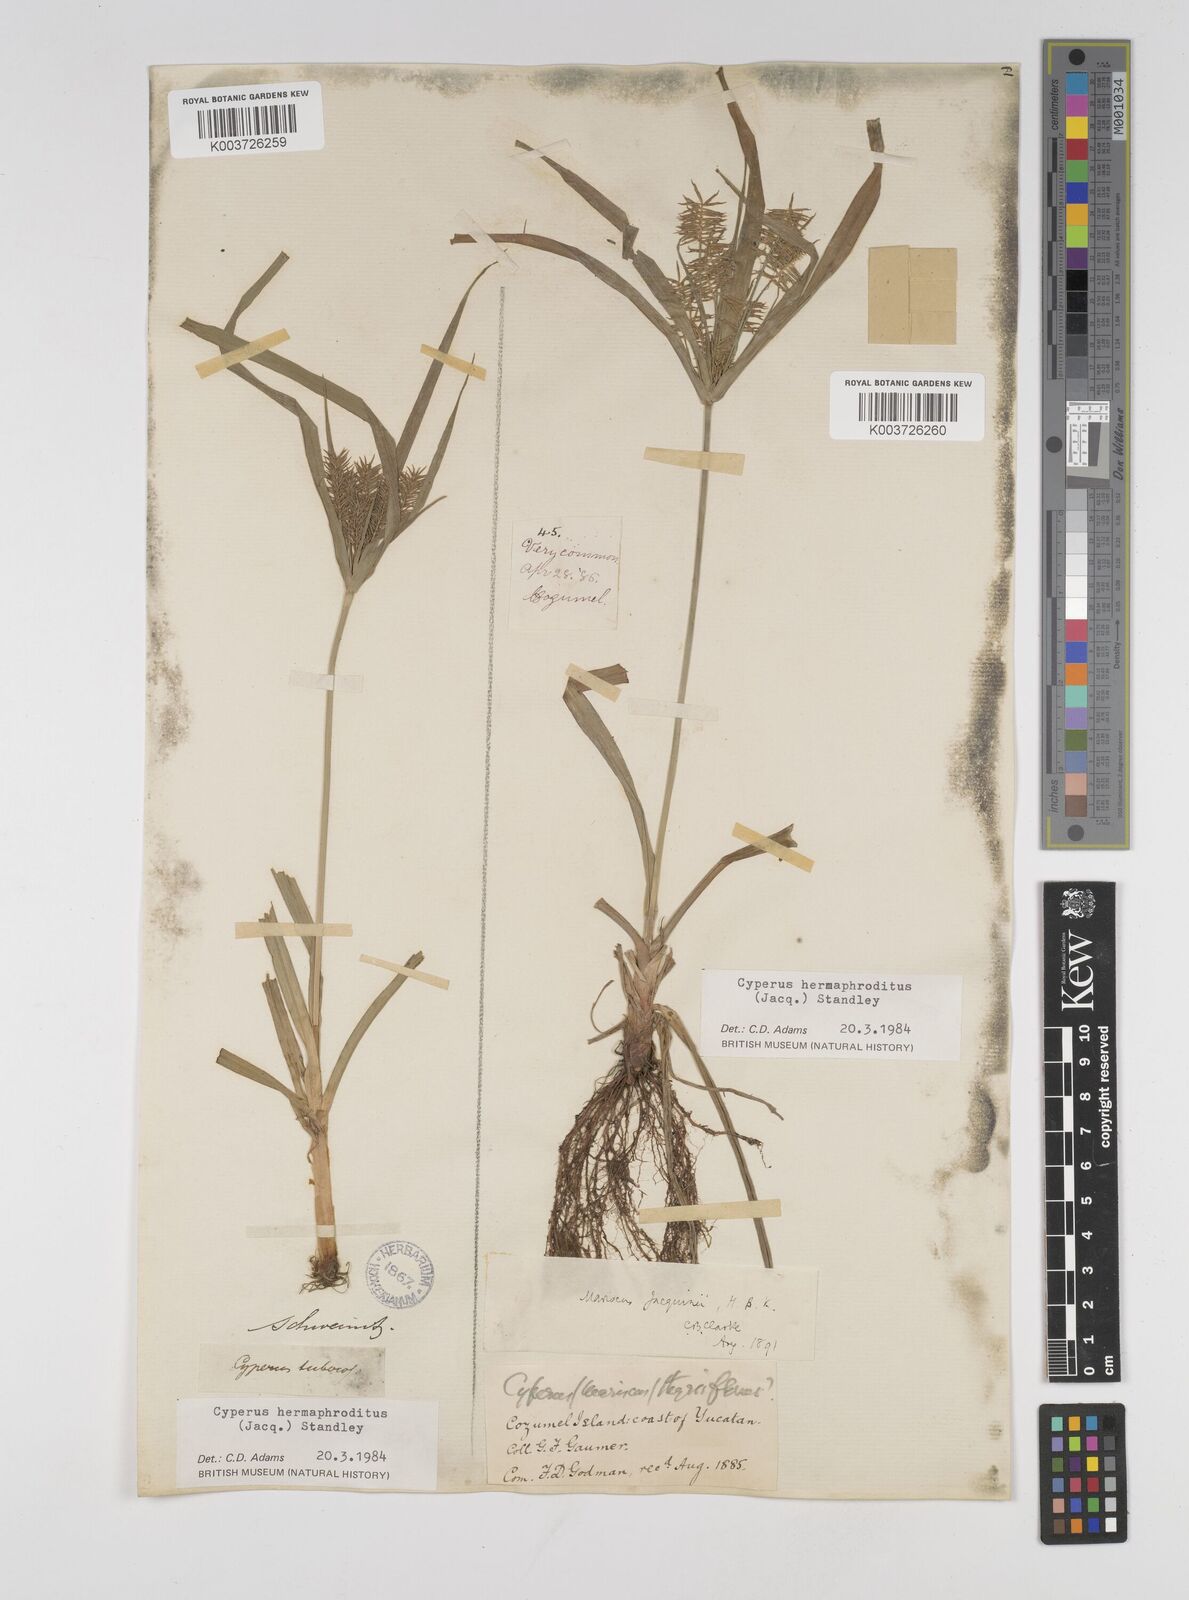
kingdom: Plantae
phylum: Tracheophyta
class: Liliopsida
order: Poales
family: Cyperaceae
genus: Cyperus
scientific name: Cyperus nutans
